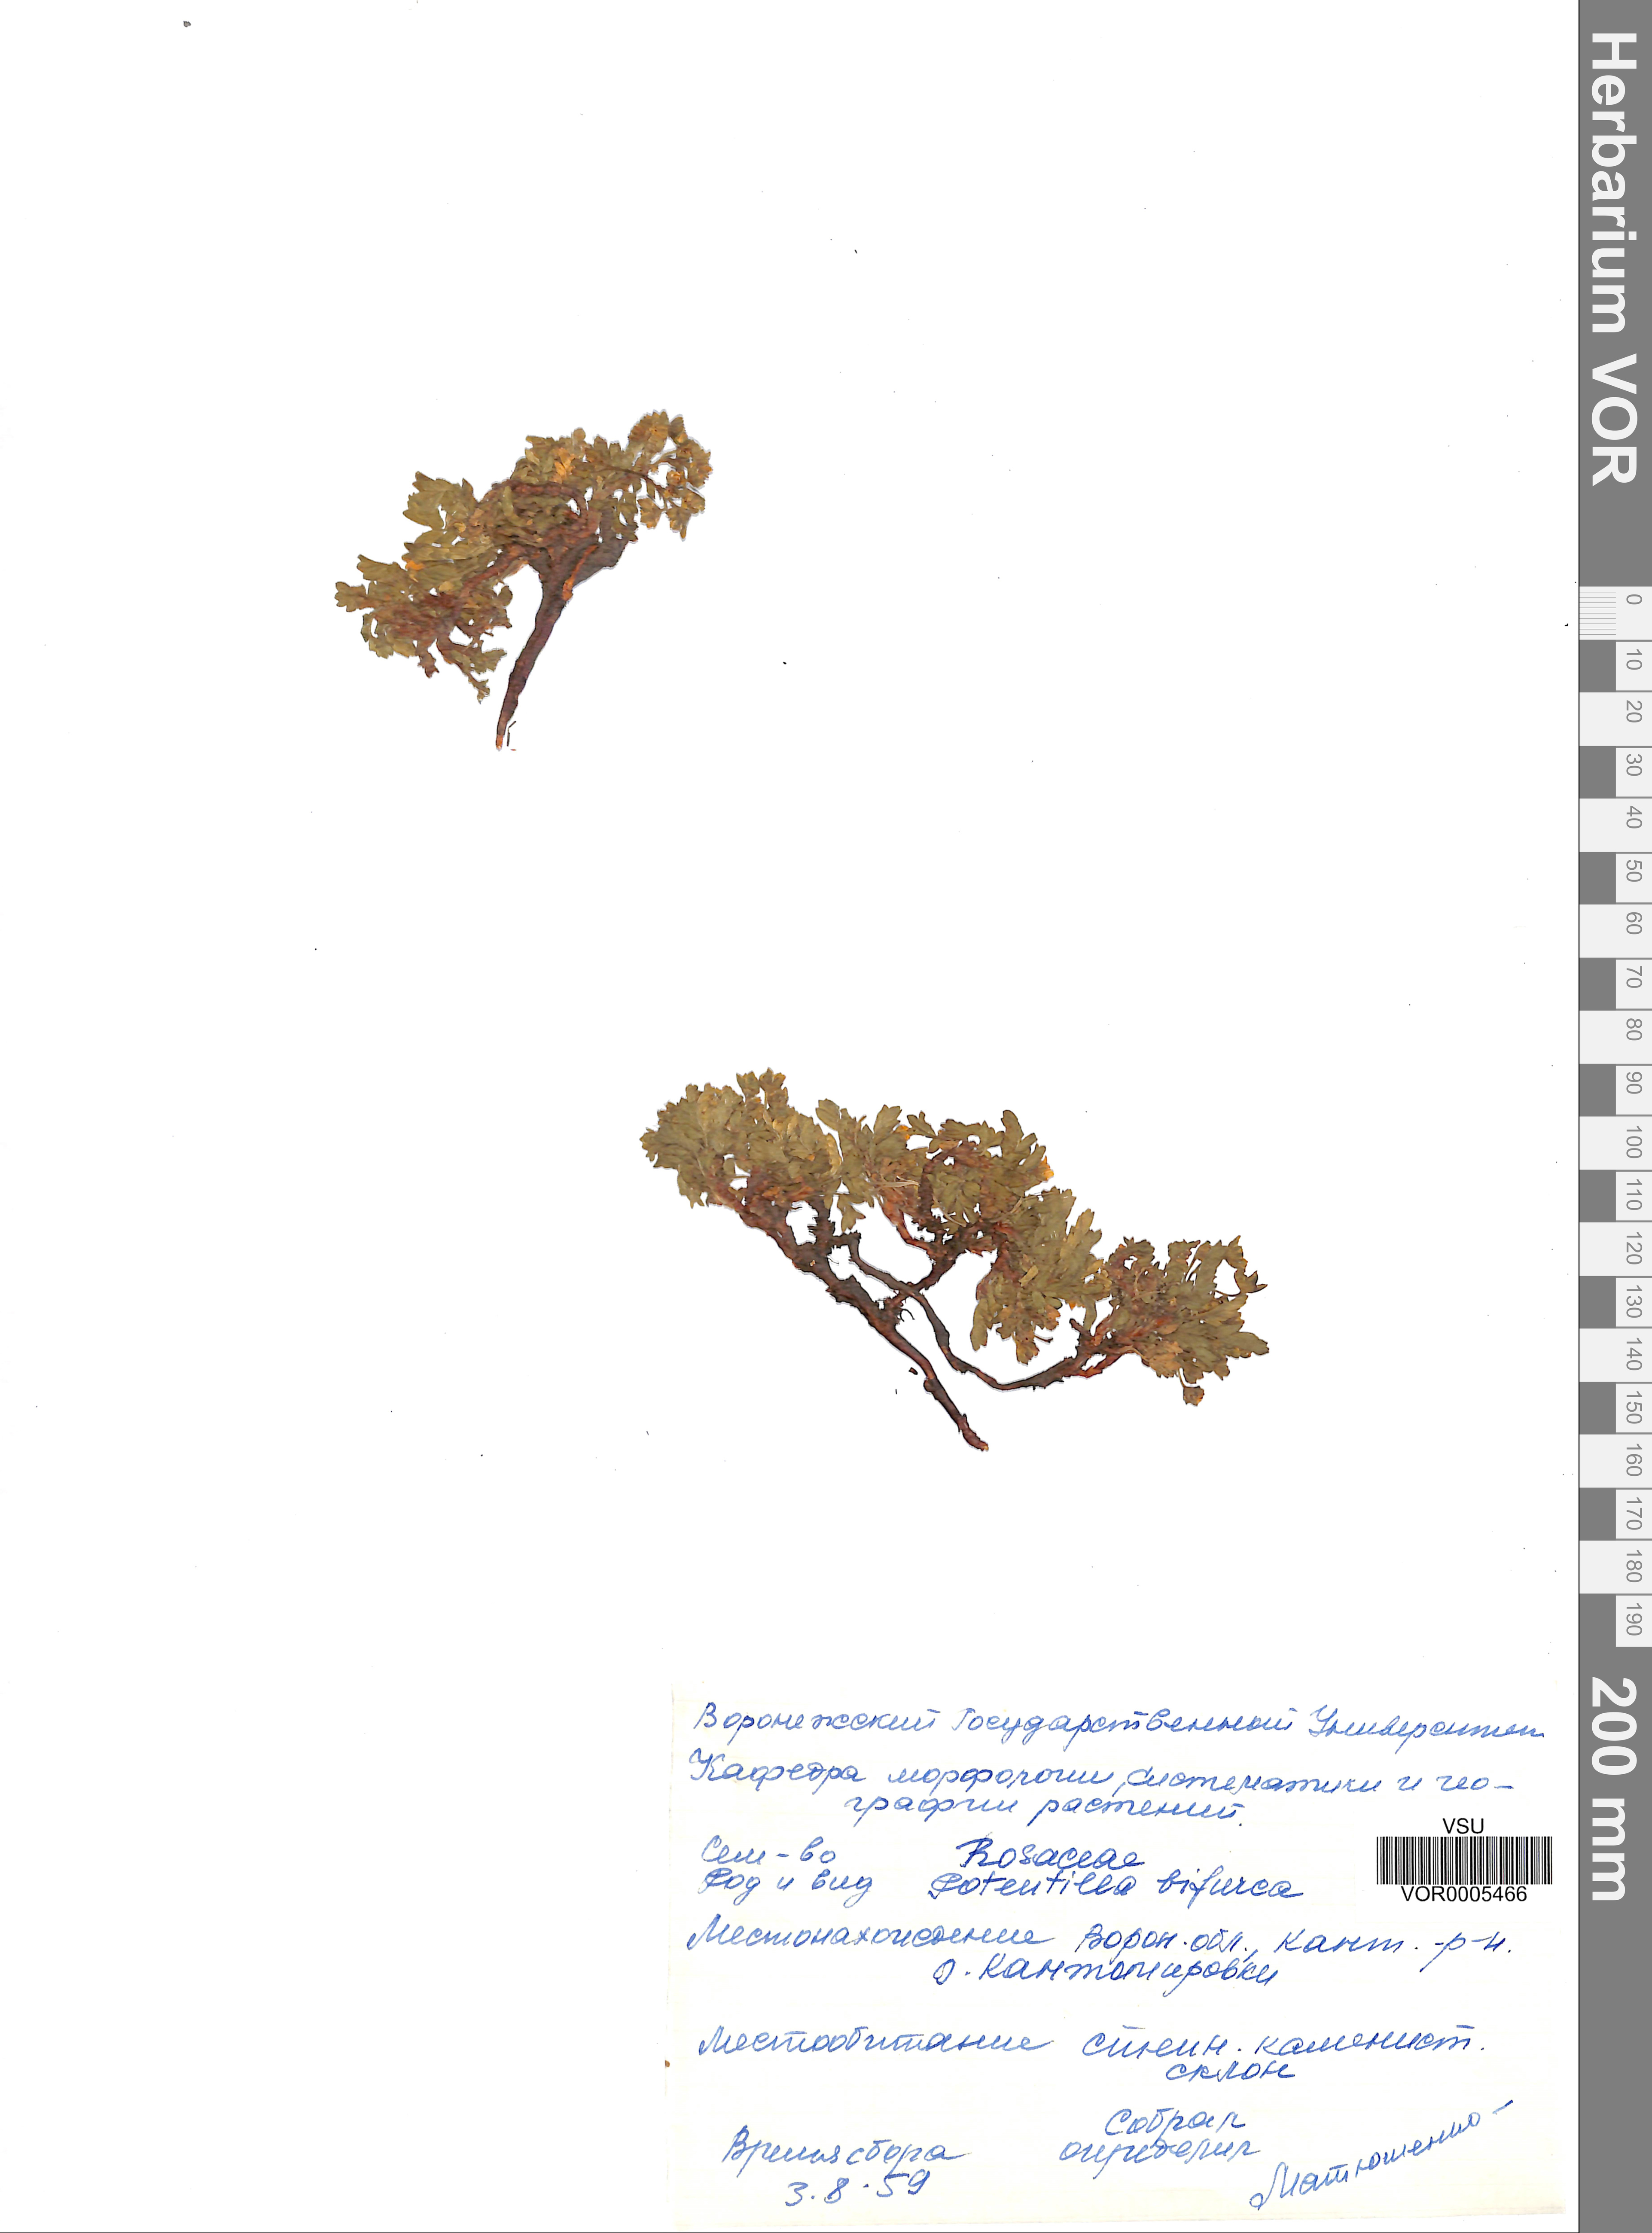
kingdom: Plantae
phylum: Tracheophyta
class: Magnoliopsida
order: Rosales
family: Rosaceae
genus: Sibbaldianthe
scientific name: Sibbaldianthe bifurca
